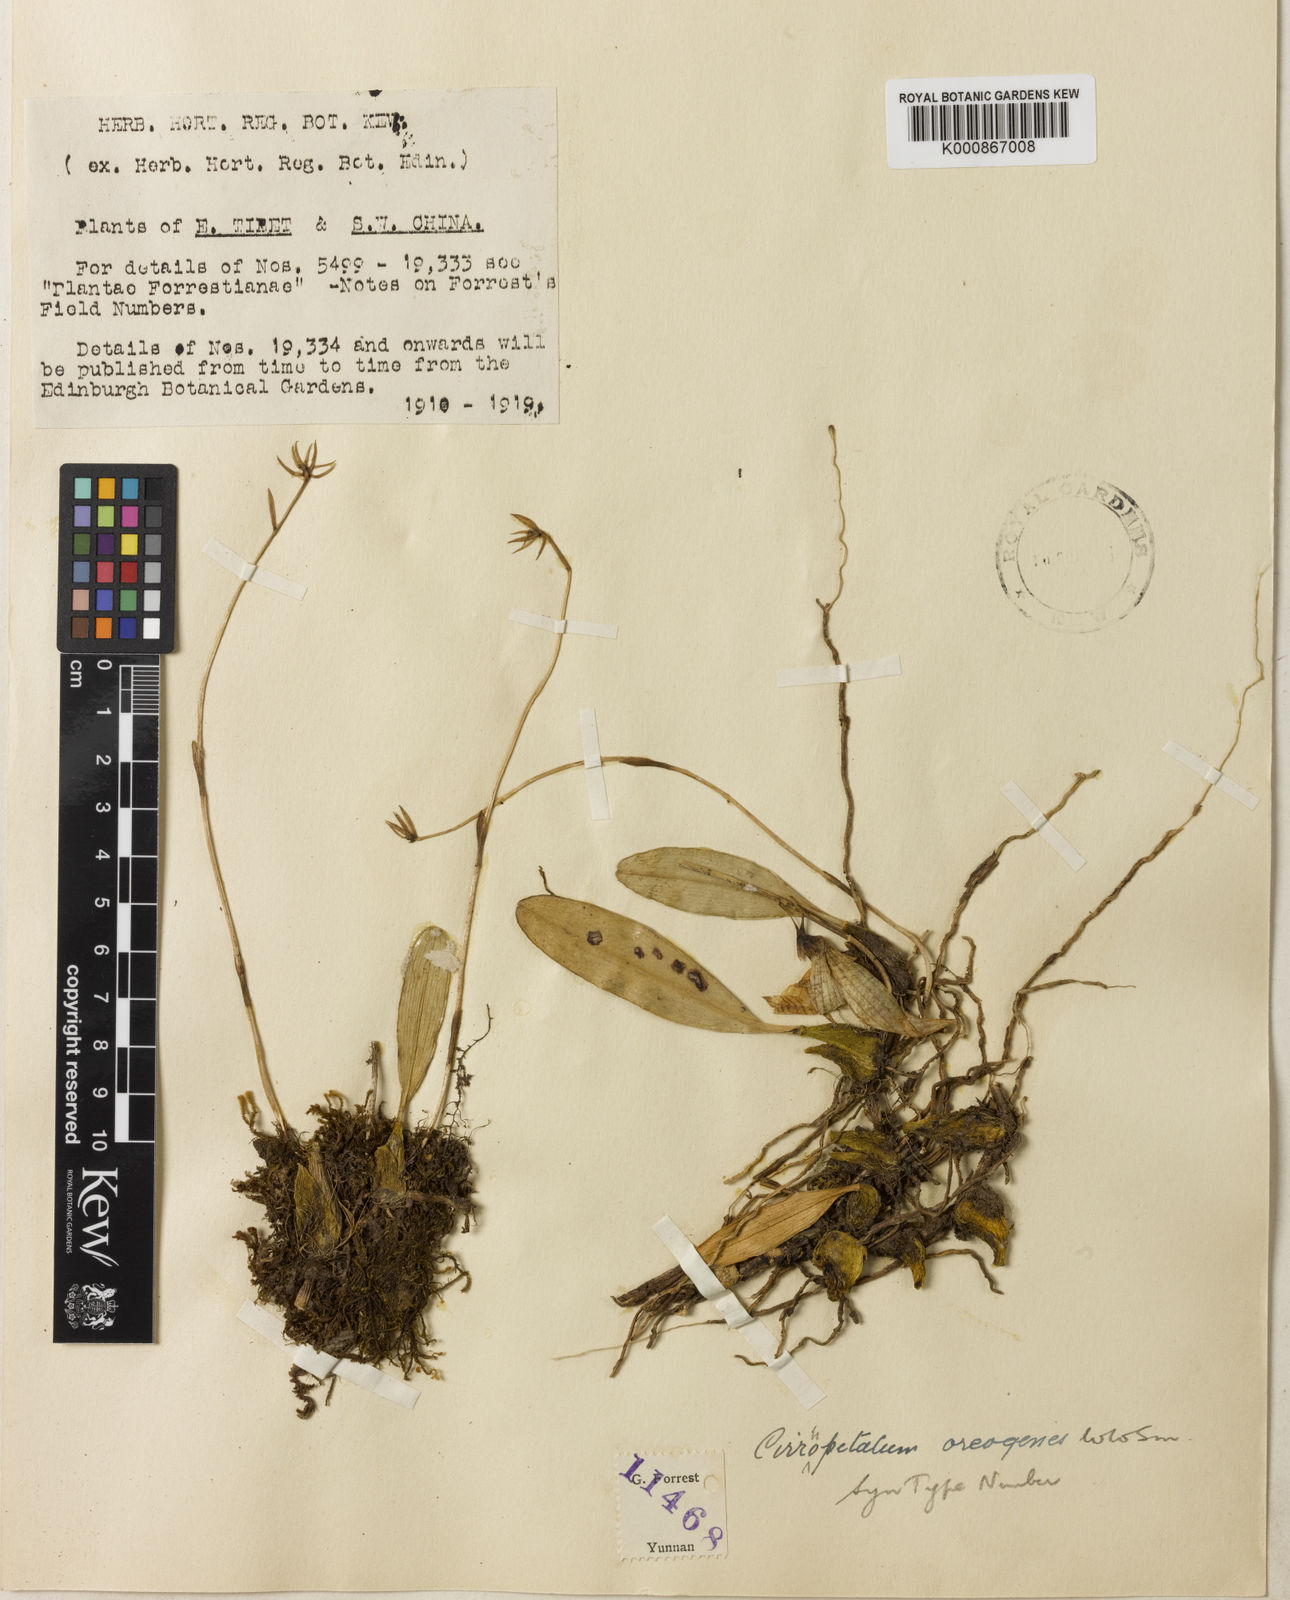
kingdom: Plantae
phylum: Tracheophyta
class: Liliopsida
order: Asparagales
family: Orchidaceae
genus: Bulbophyllum
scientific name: Bulbophyllum retusiusculum
